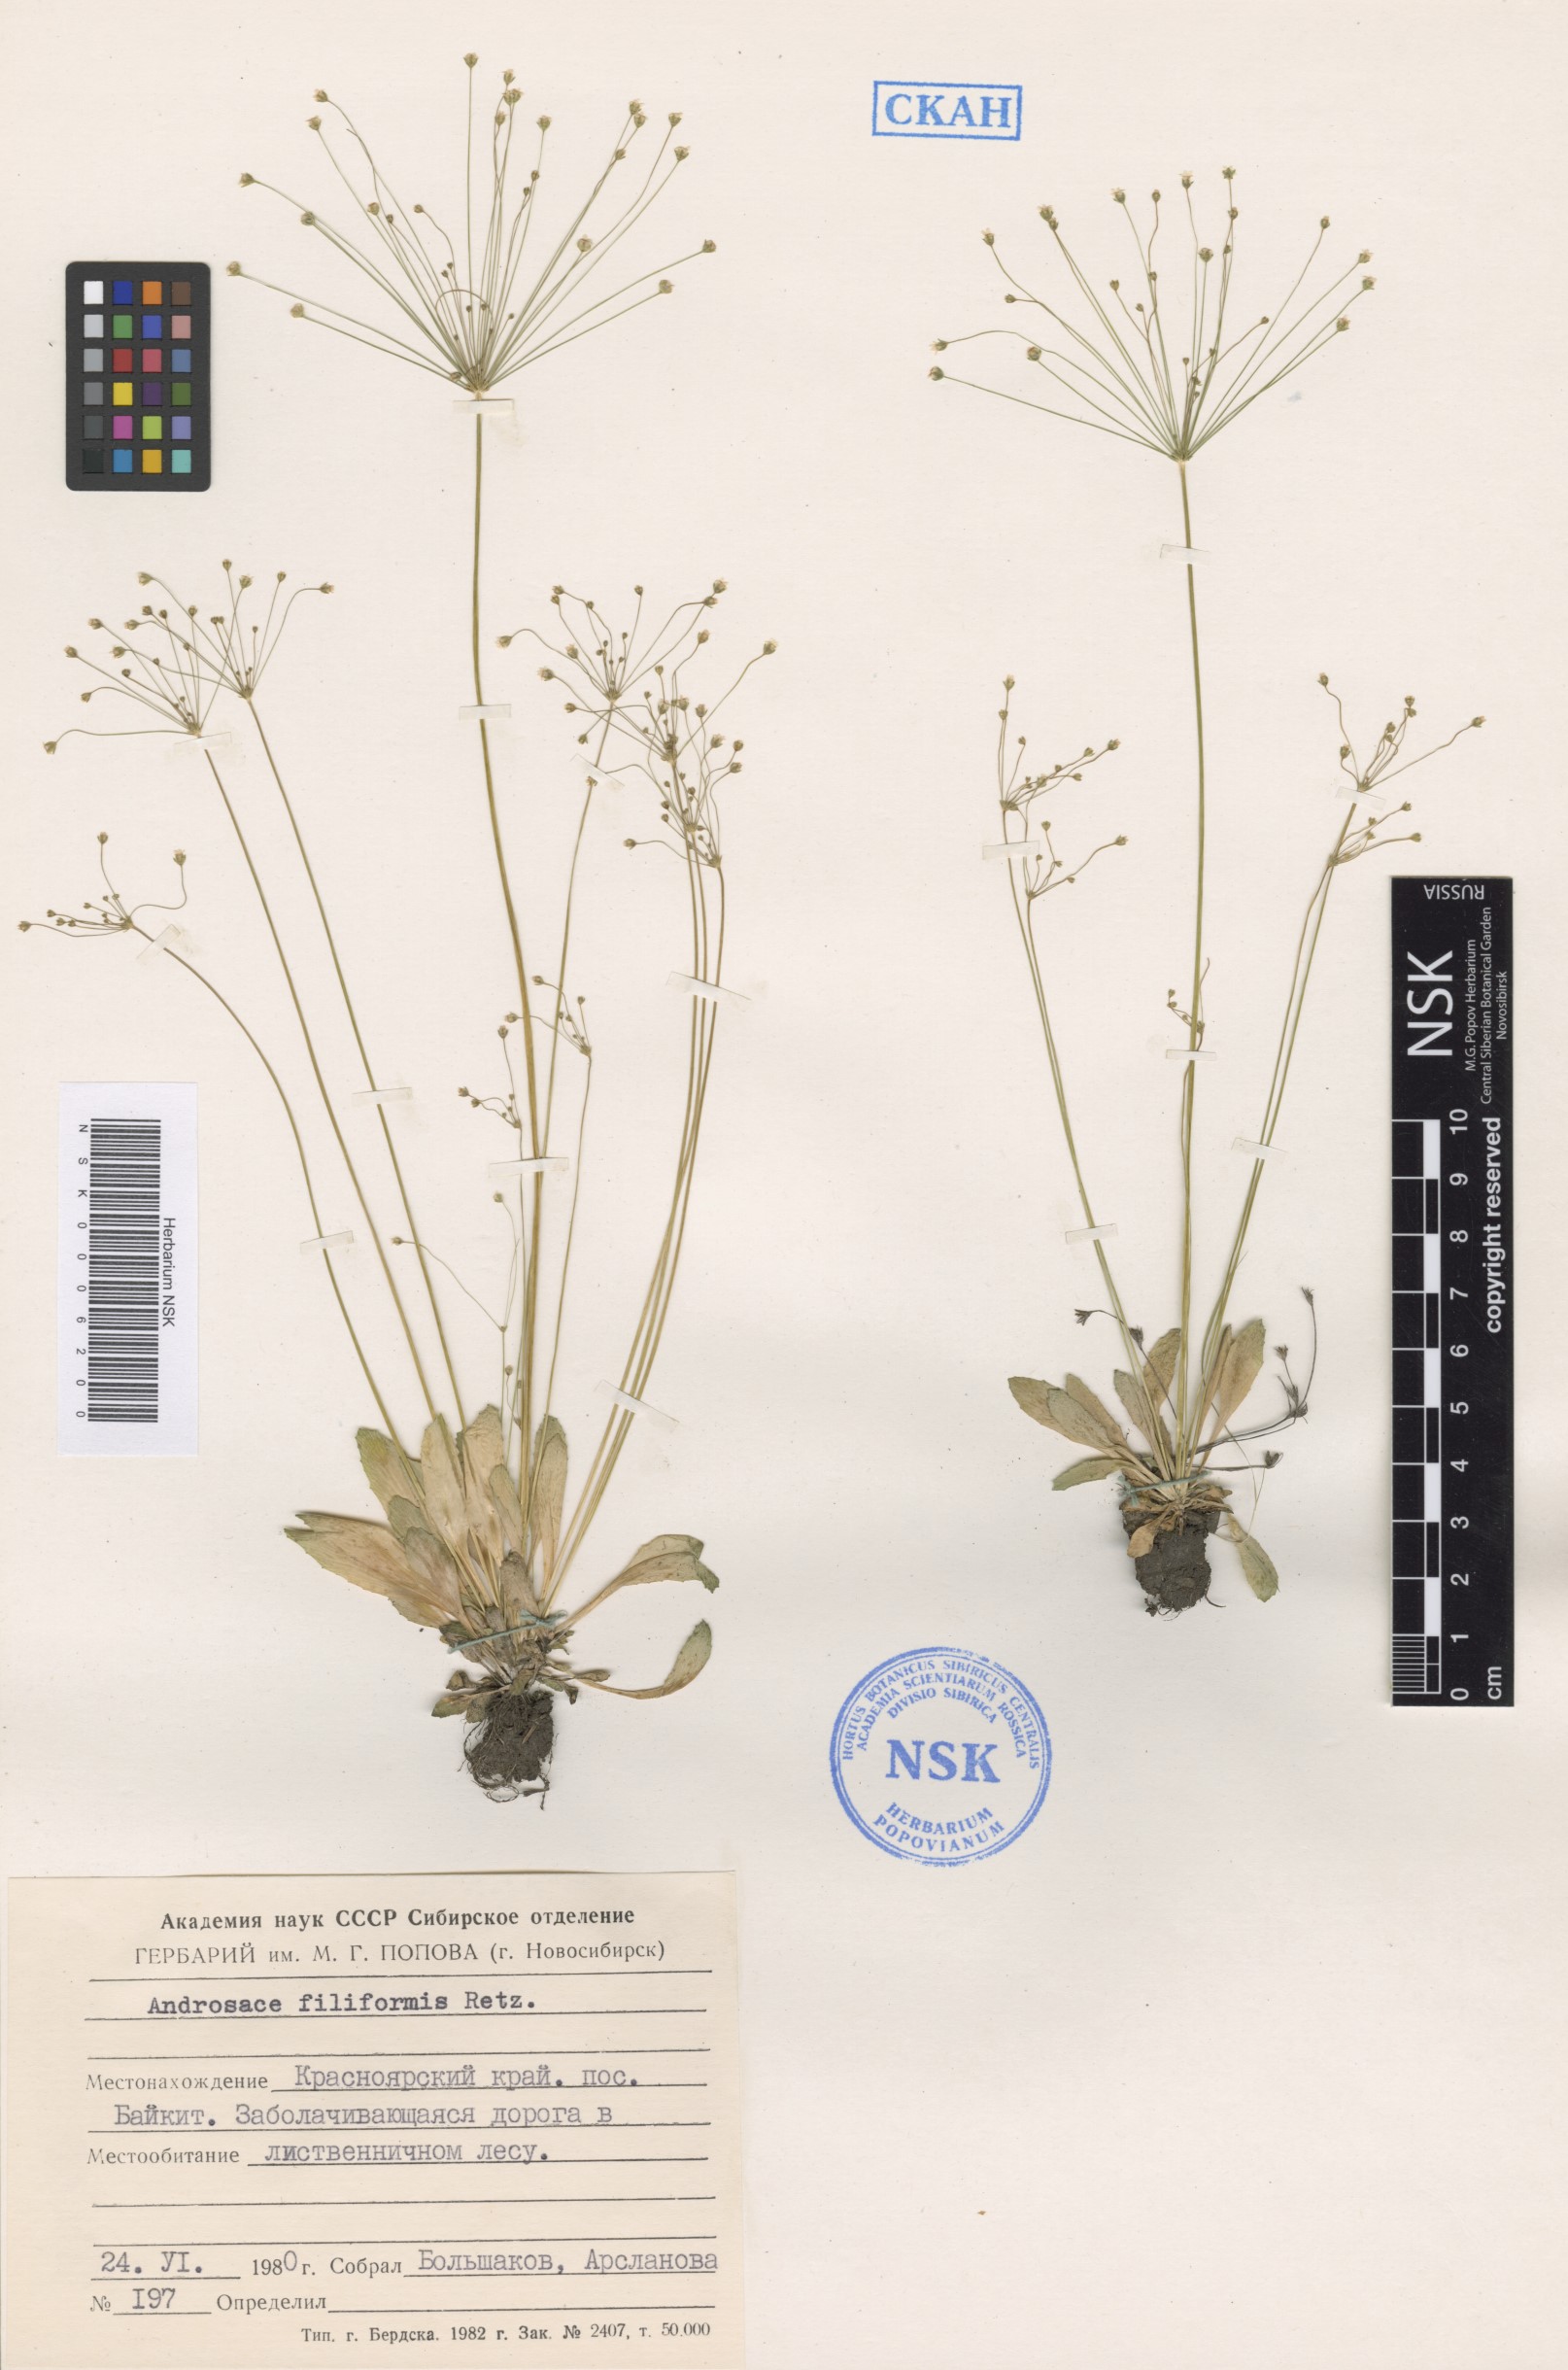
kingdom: Plantae
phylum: Tracheophyta
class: Magnoliopsida
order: Ericales
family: Primulaceae
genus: Androsace
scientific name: Androsace filiformis
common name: Filiform rock jasmine
